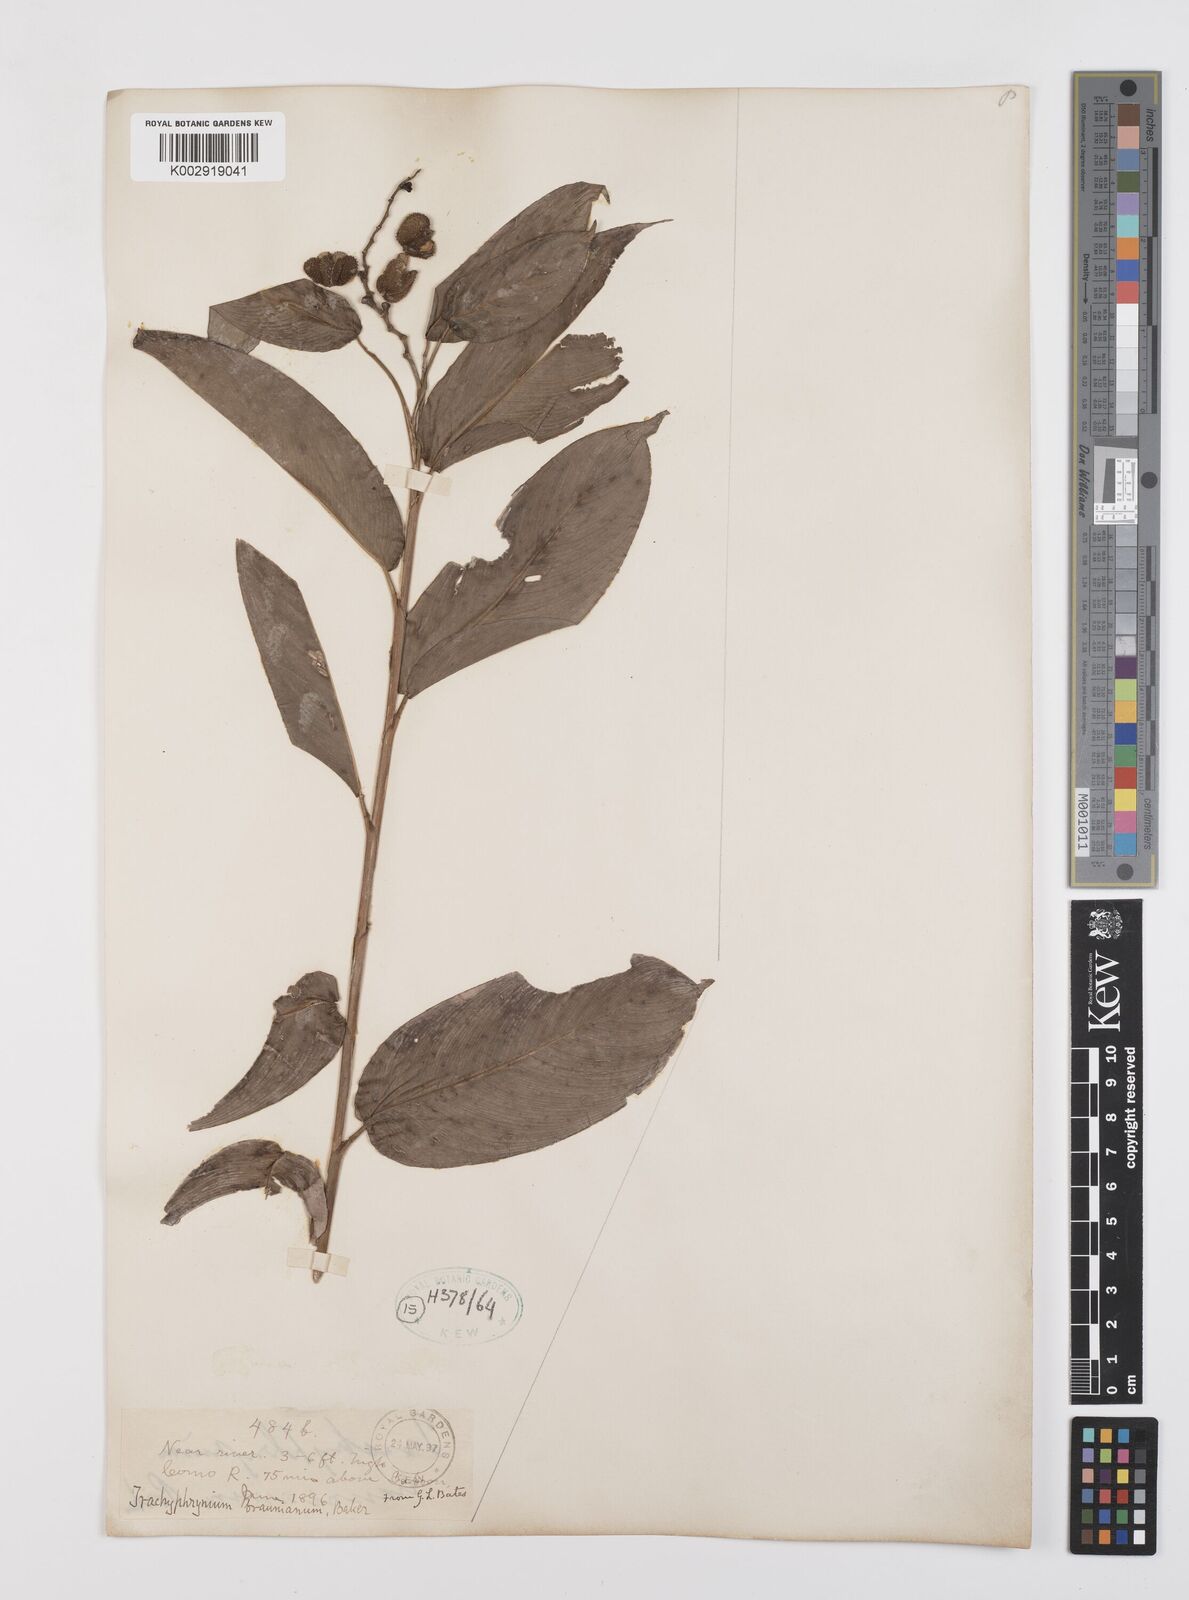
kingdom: Plantae
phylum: Tracheophyta
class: Liliopsida
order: Zingiberales
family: Marantaceae
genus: Trachyphrynium
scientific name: Trachyphrynium braunianum
